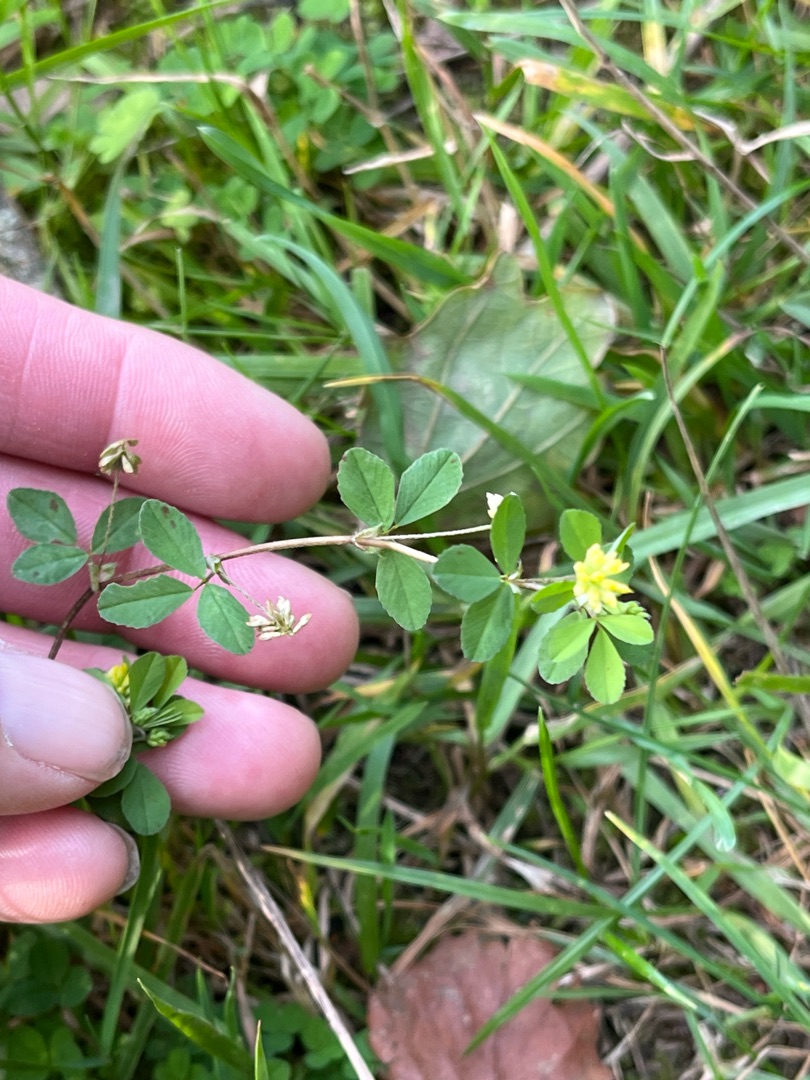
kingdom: Plantae
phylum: Tracheophyta
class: Magnoliopsida
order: Fabales
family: Fabaceae
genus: Trifolium
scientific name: Trifolium dubium
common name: Fin kløver
